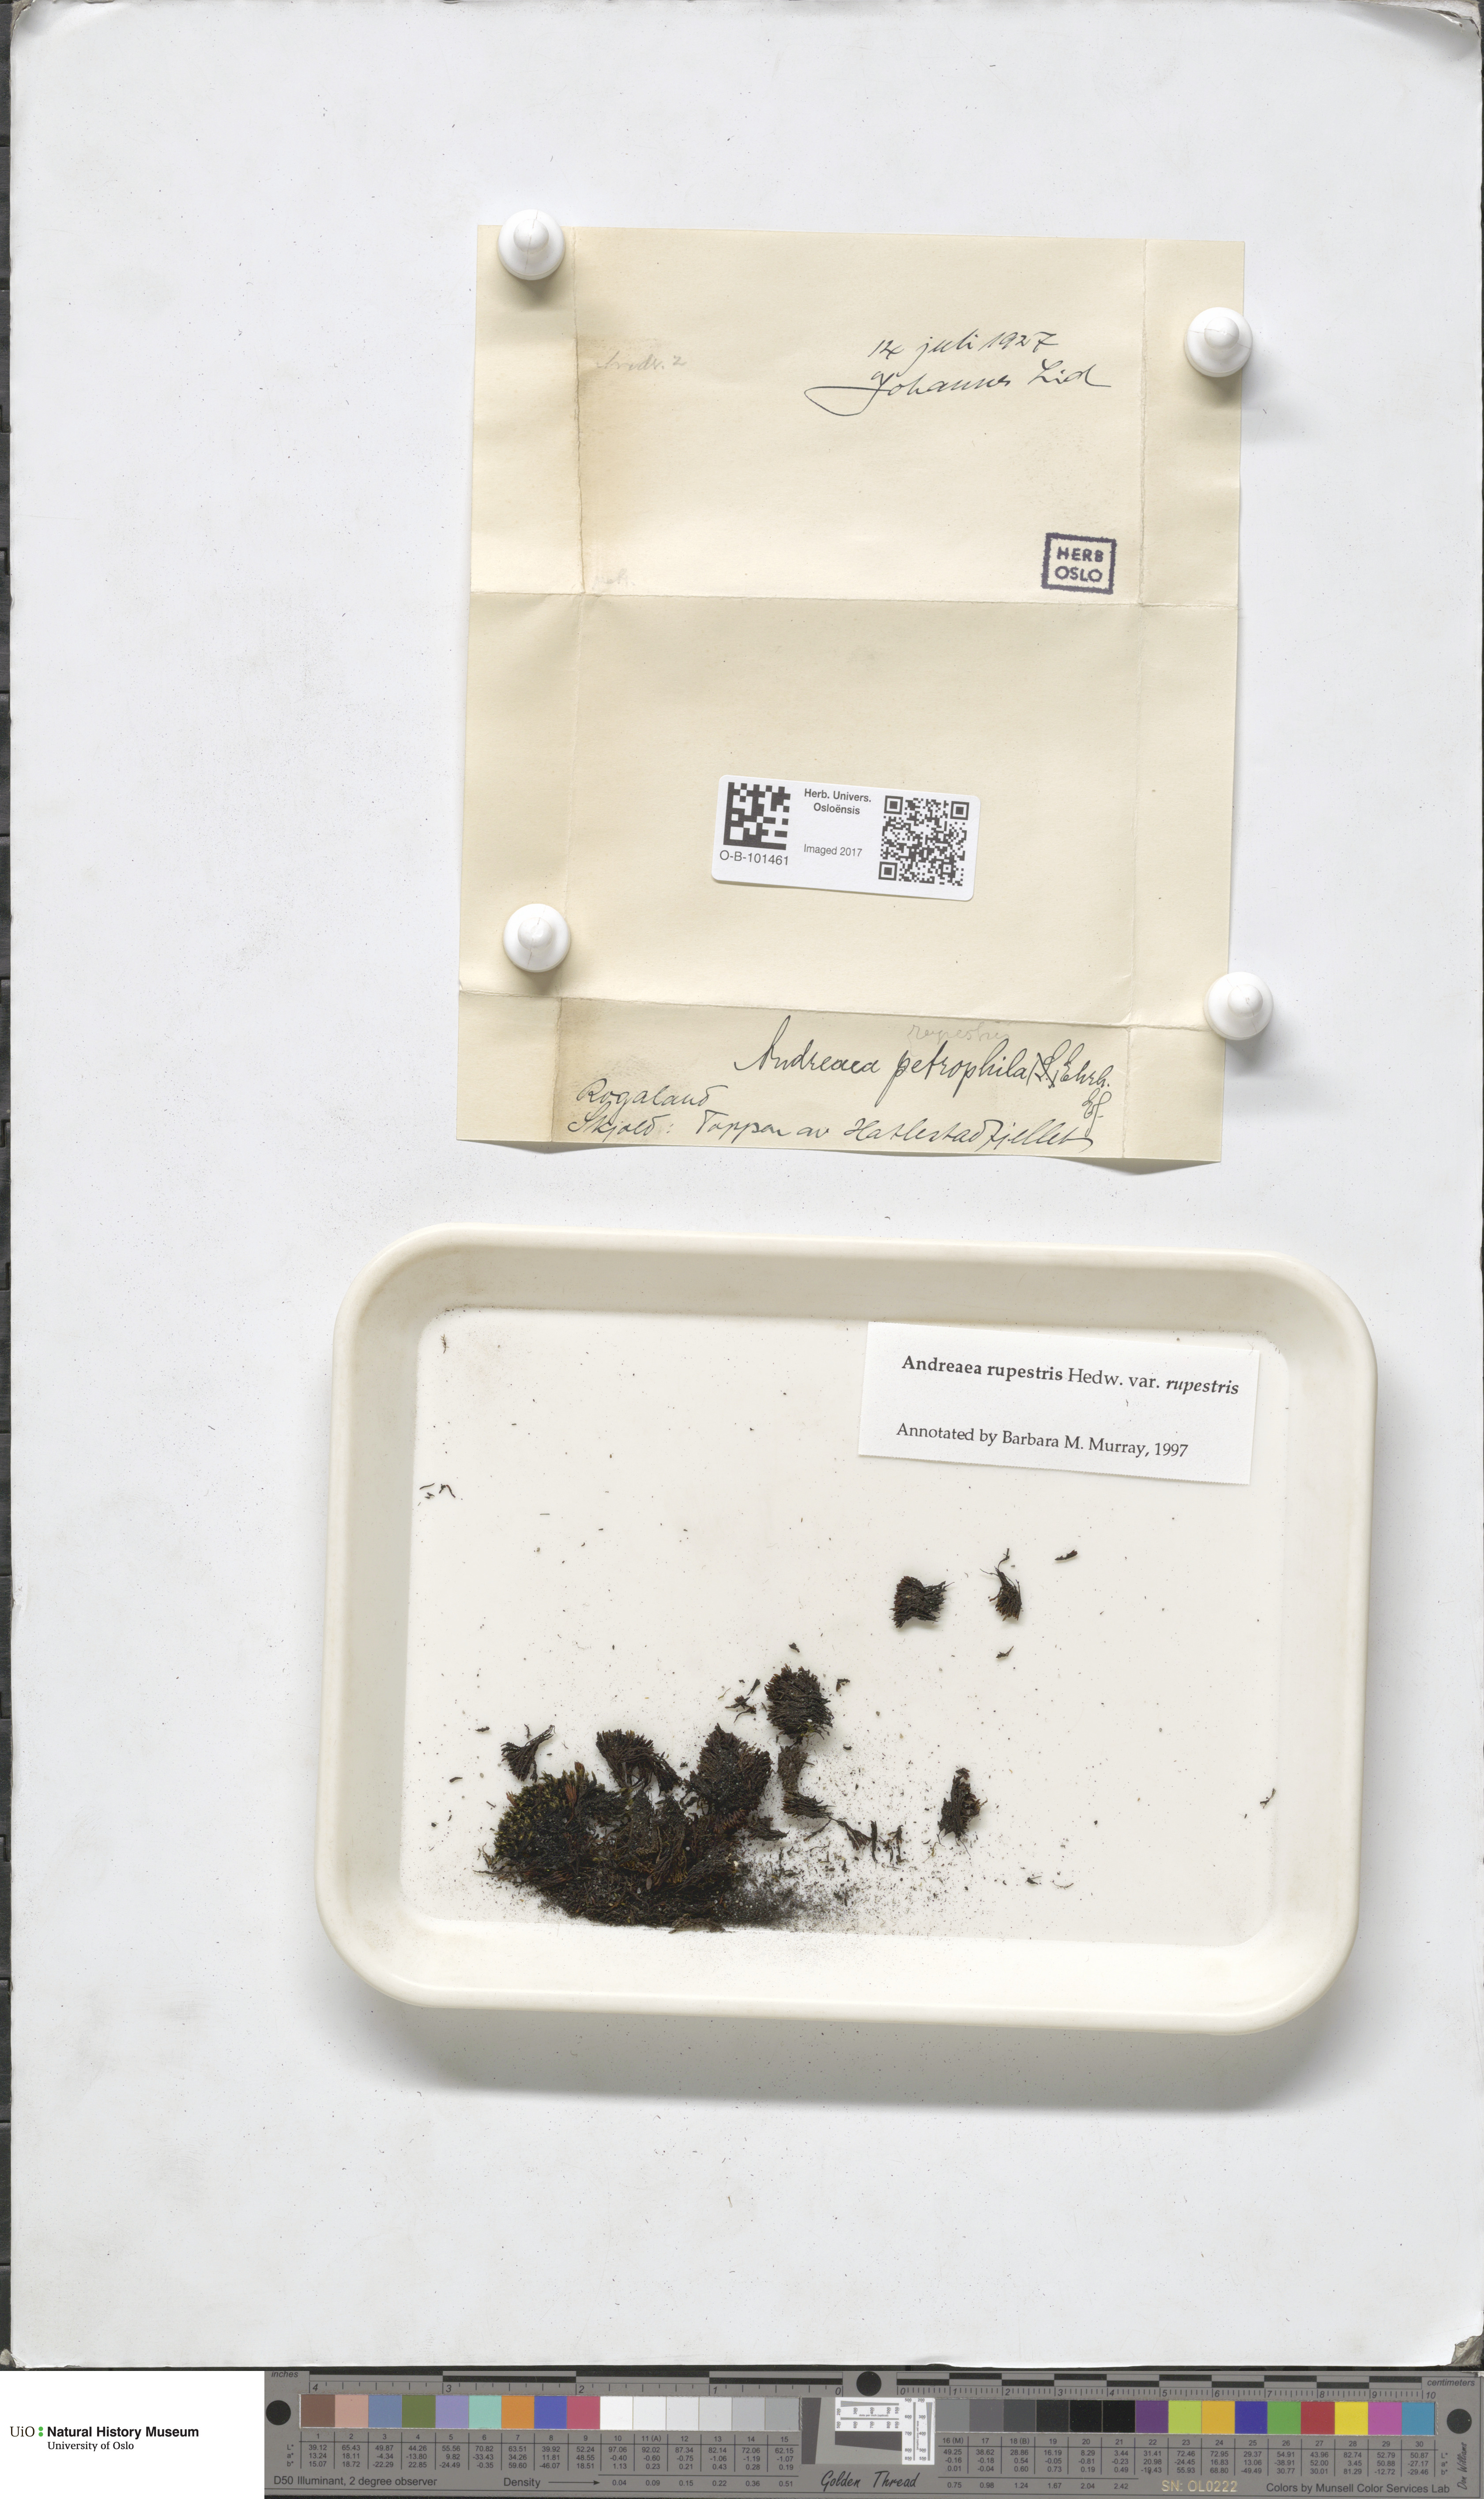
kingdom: Plantae
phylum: Bryophyta
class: Andreaeopsida
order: Andreaeales
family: Andreaeaceae
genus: Andreaea
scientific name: Andreaea rupestris
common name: Black rock moss
